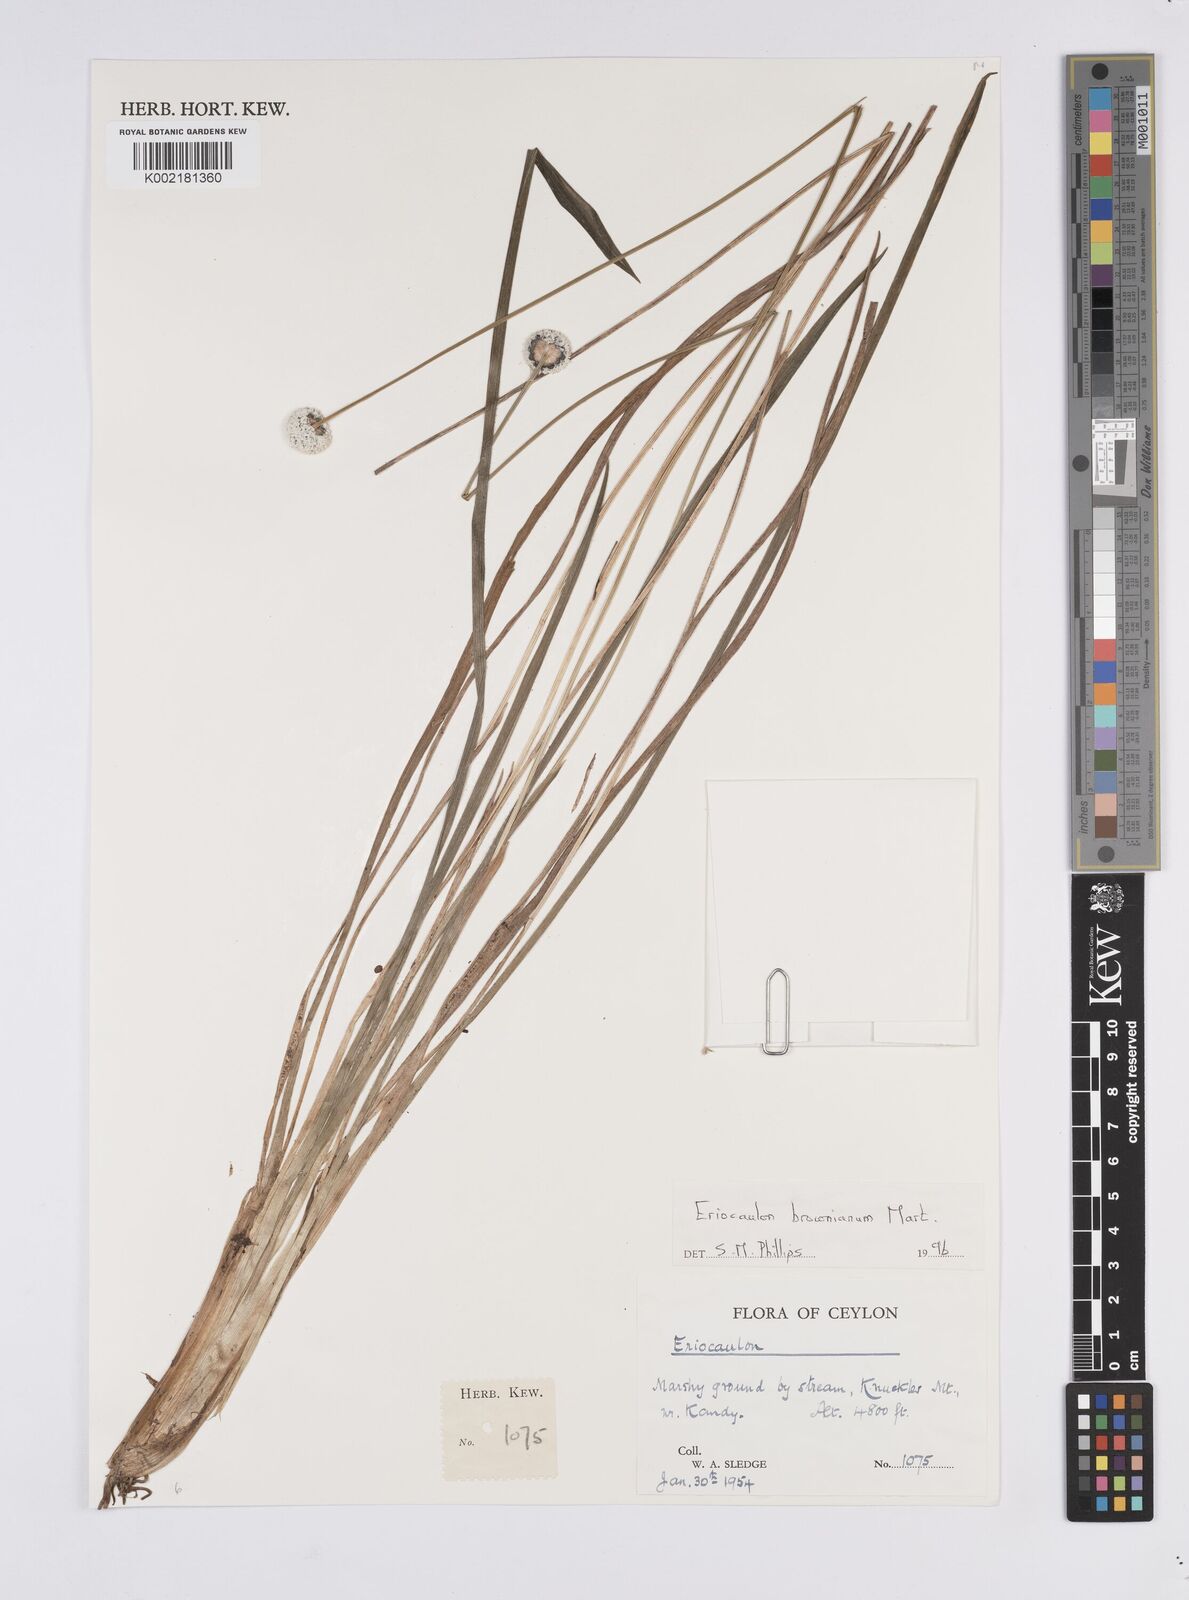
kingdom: Plantae
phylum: Tracheophyta
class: Liliopsida
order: Poales
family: Eriocaulaceae
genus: Eriocaulon
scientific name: Eriocaulon brownianum
